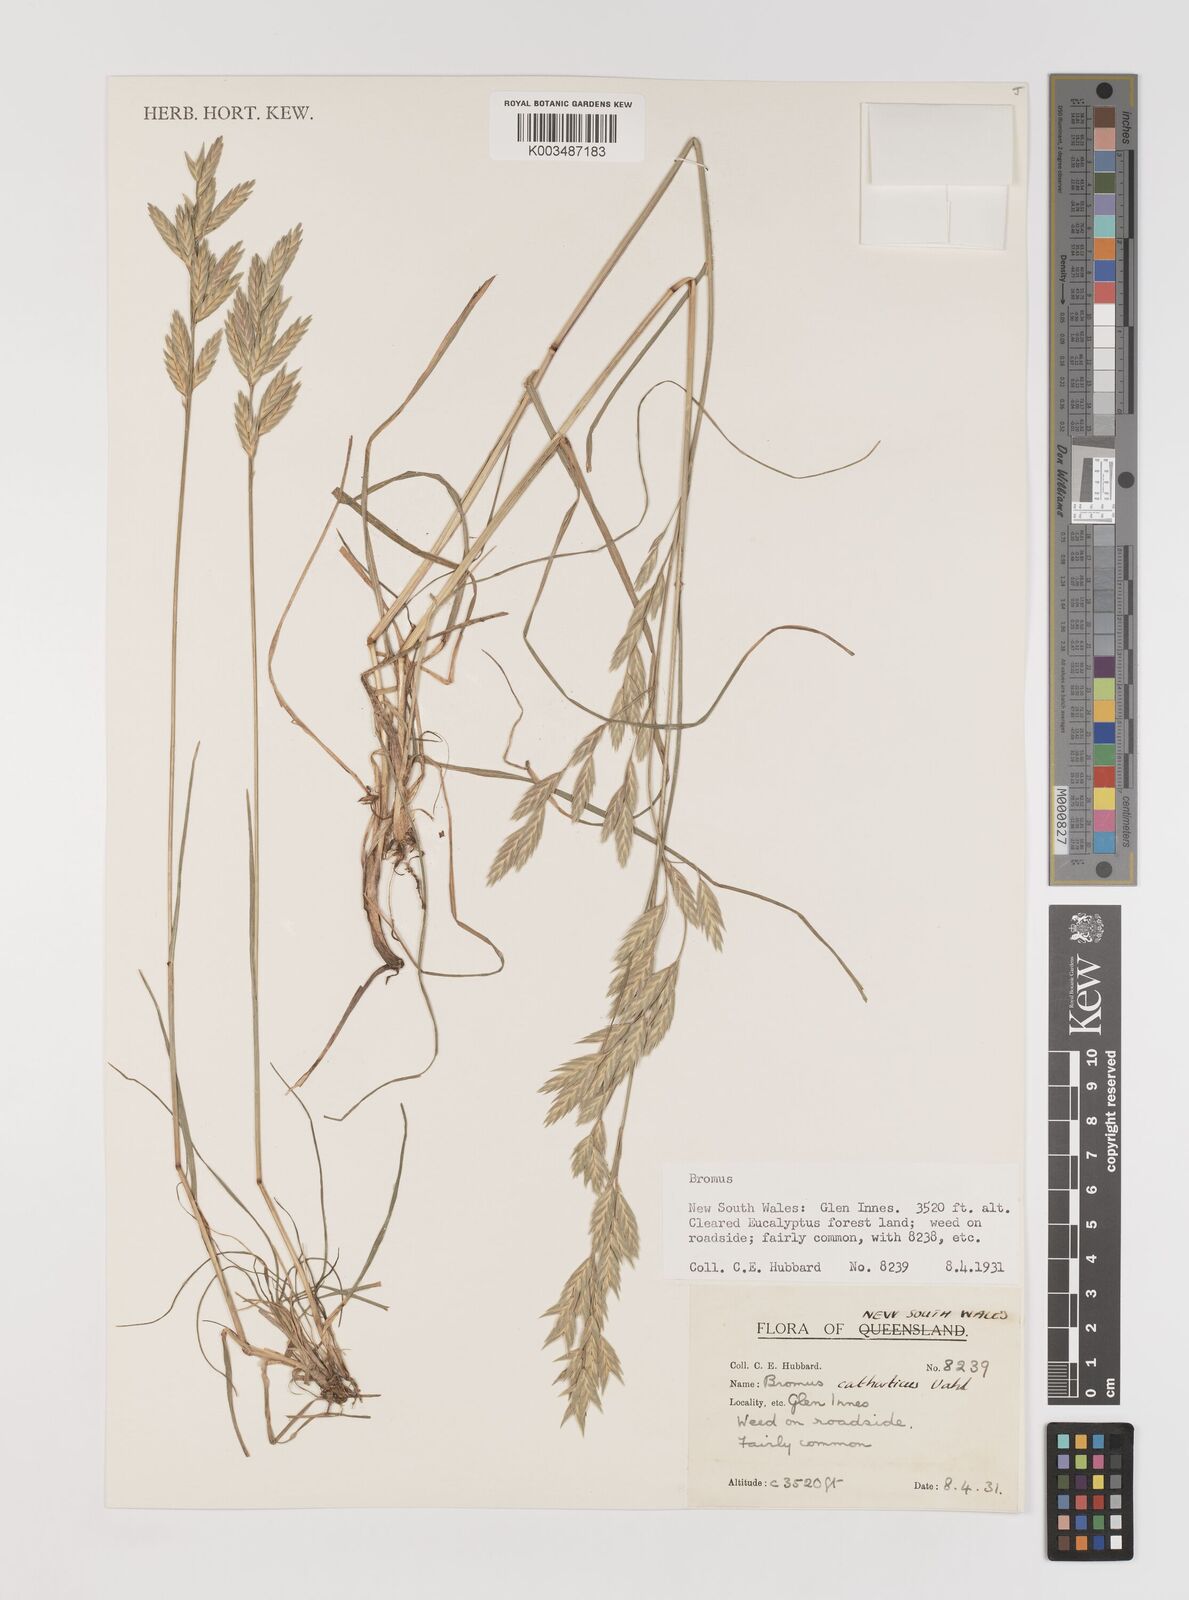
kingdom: Plantae
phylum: Tracheophyta
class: Liliopsida
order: Poales
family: Poaceae
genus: Bromus
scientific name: Bromus catharticus
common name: Rescuegrass
